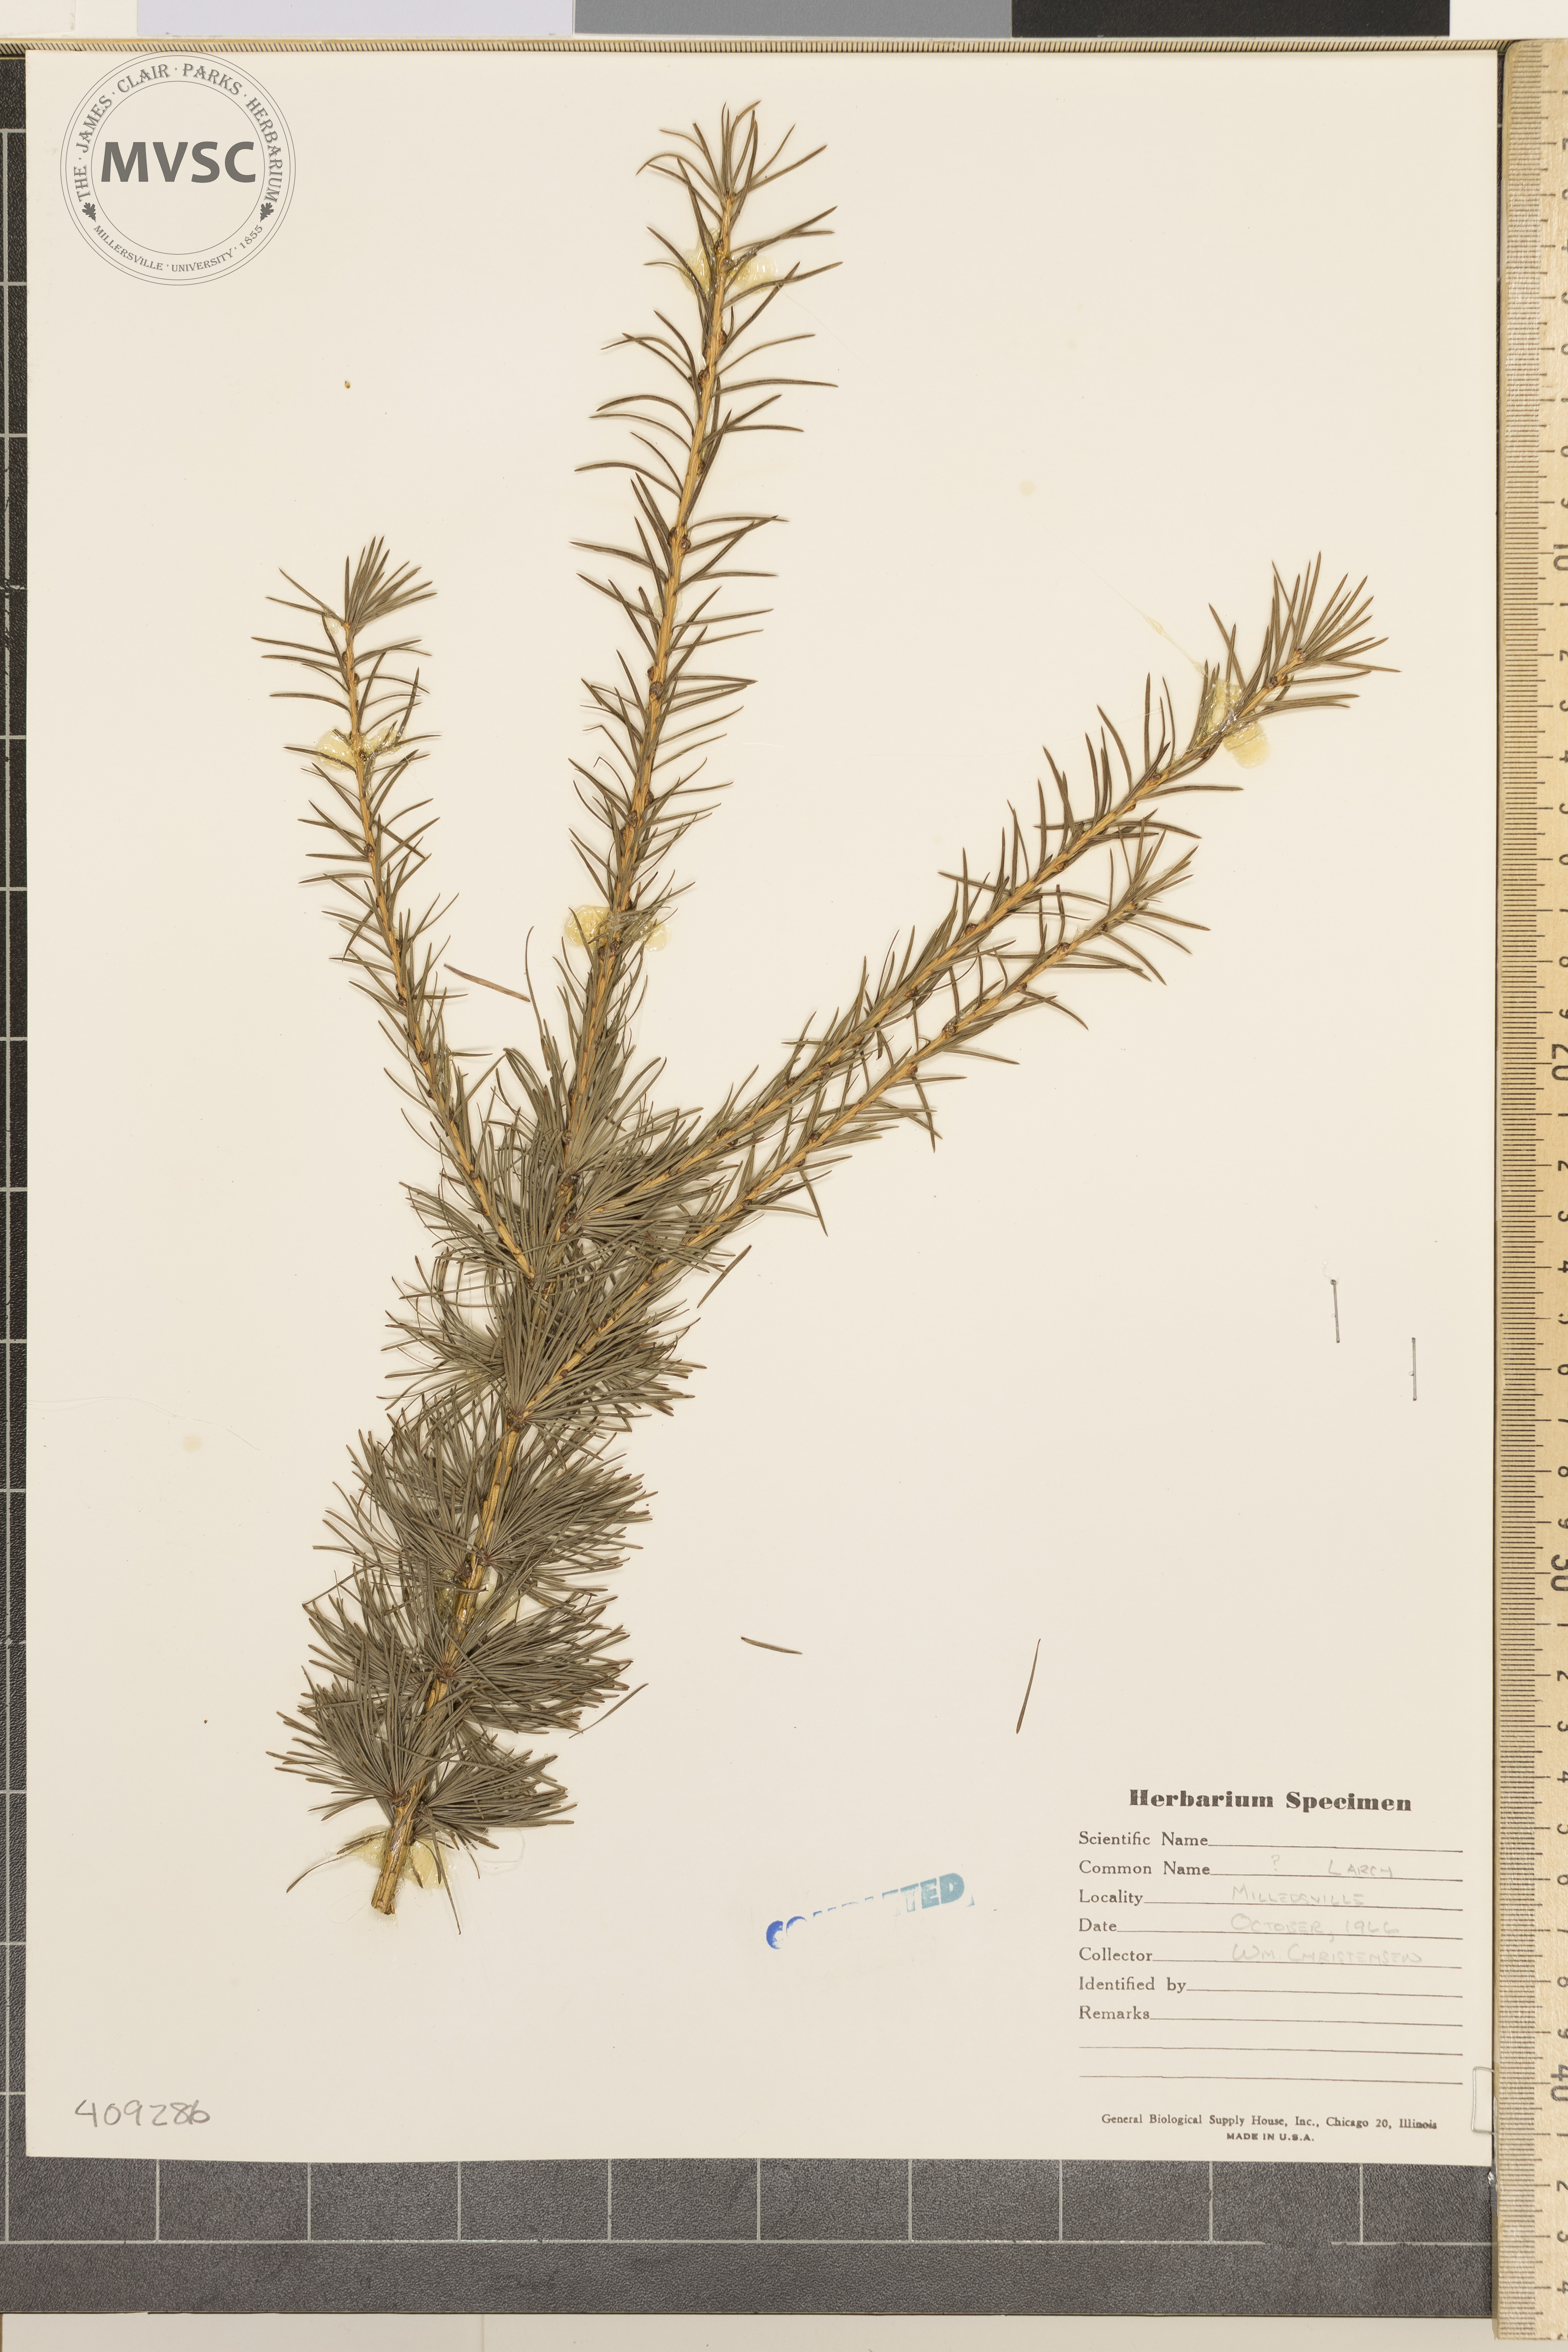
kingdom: Plantae
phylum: Tracheophyta
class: Pinopsida
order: Pinales
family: Pinaceae
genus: Larix
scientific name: Larix
